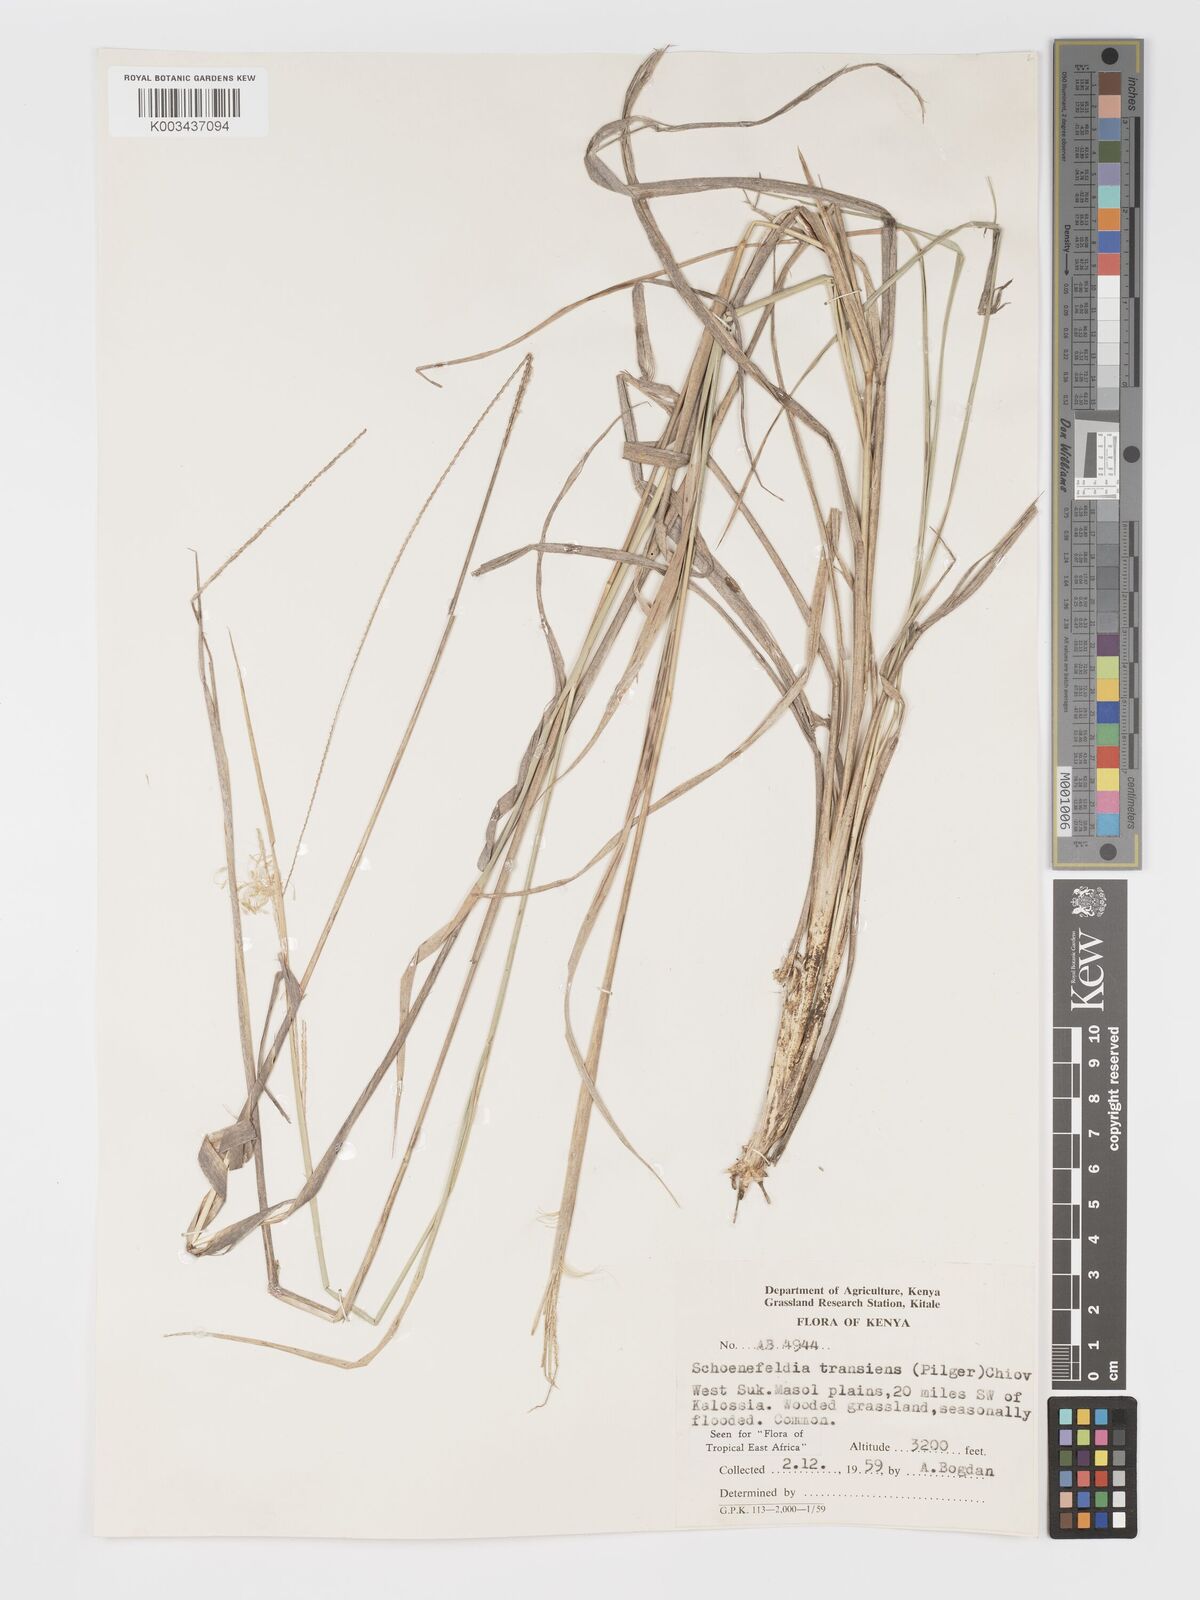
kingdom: Plantae
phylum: Tracheophyta
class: Liliopsida
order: Poales
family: Poaceae
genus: Schoenefeldia
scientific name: Schoenefeldia transiens
